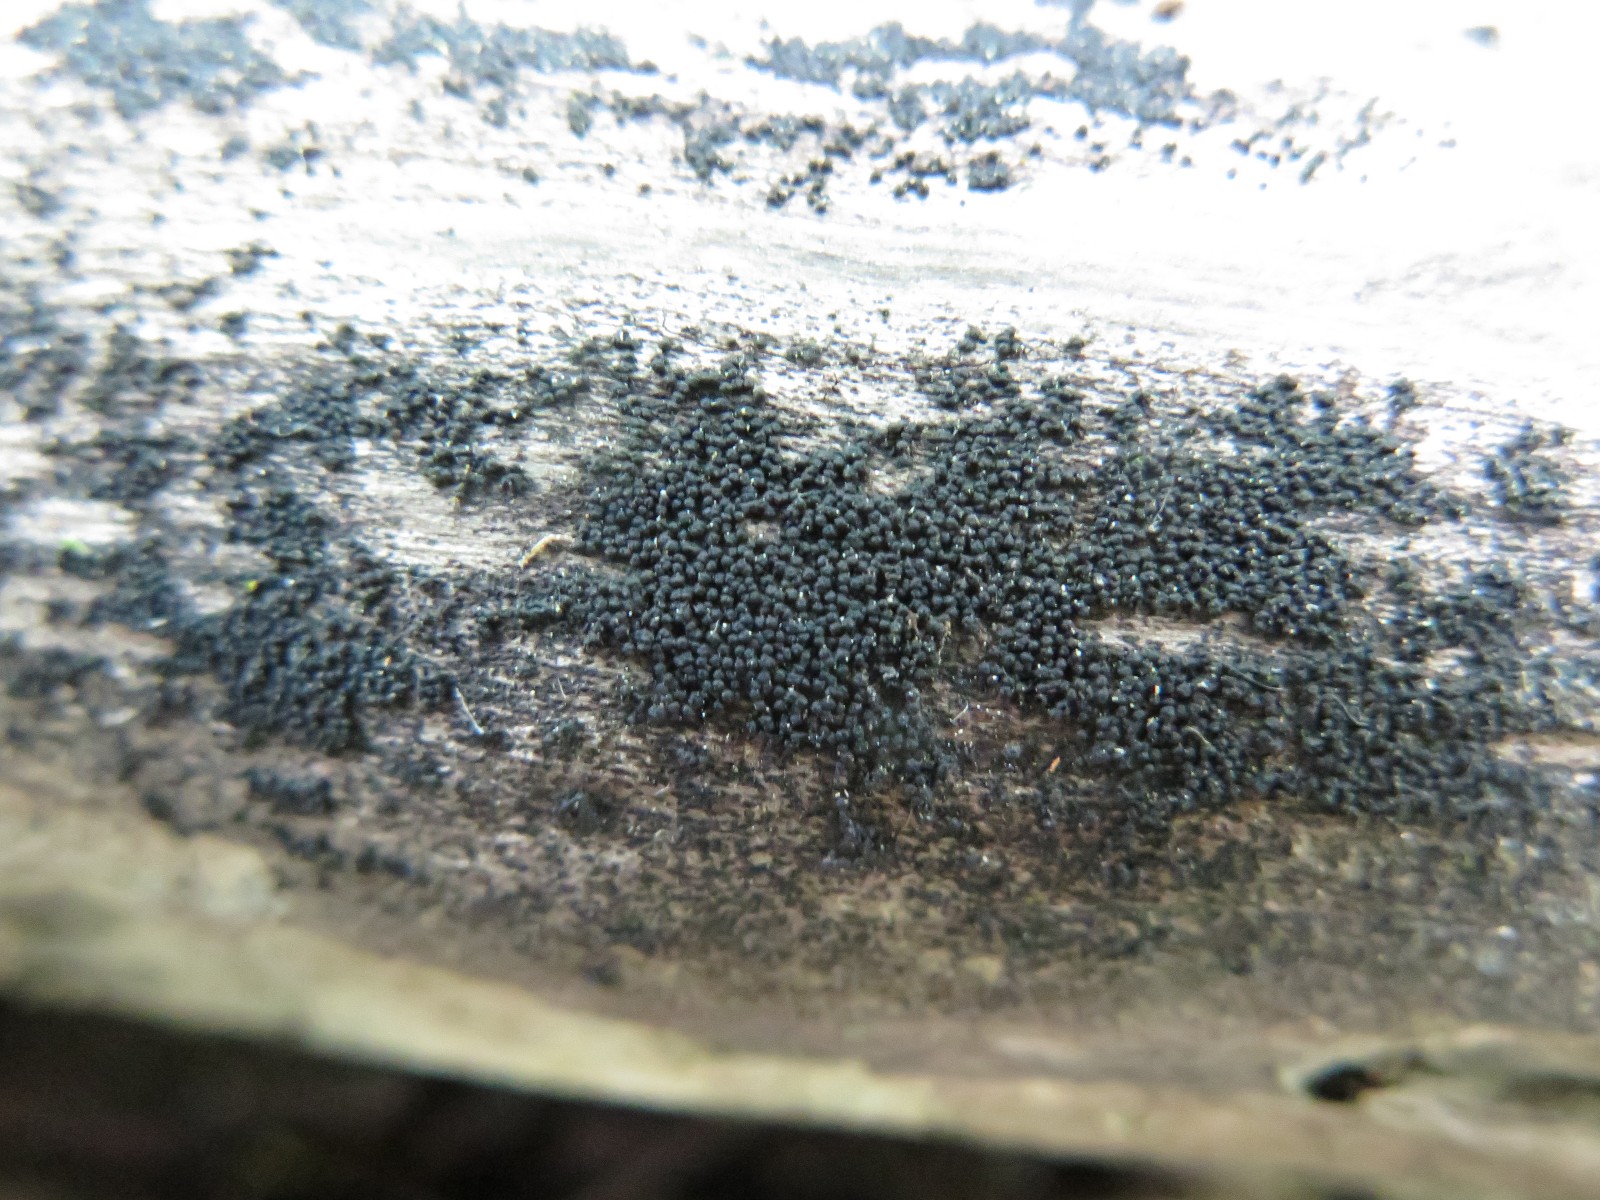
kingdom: Fungi
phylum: Ascomycota
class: Dothideomycetes
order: Pleosporales
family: Melanommataceae
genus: Melanomma
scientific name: Melanomma pulvis-pyrius
